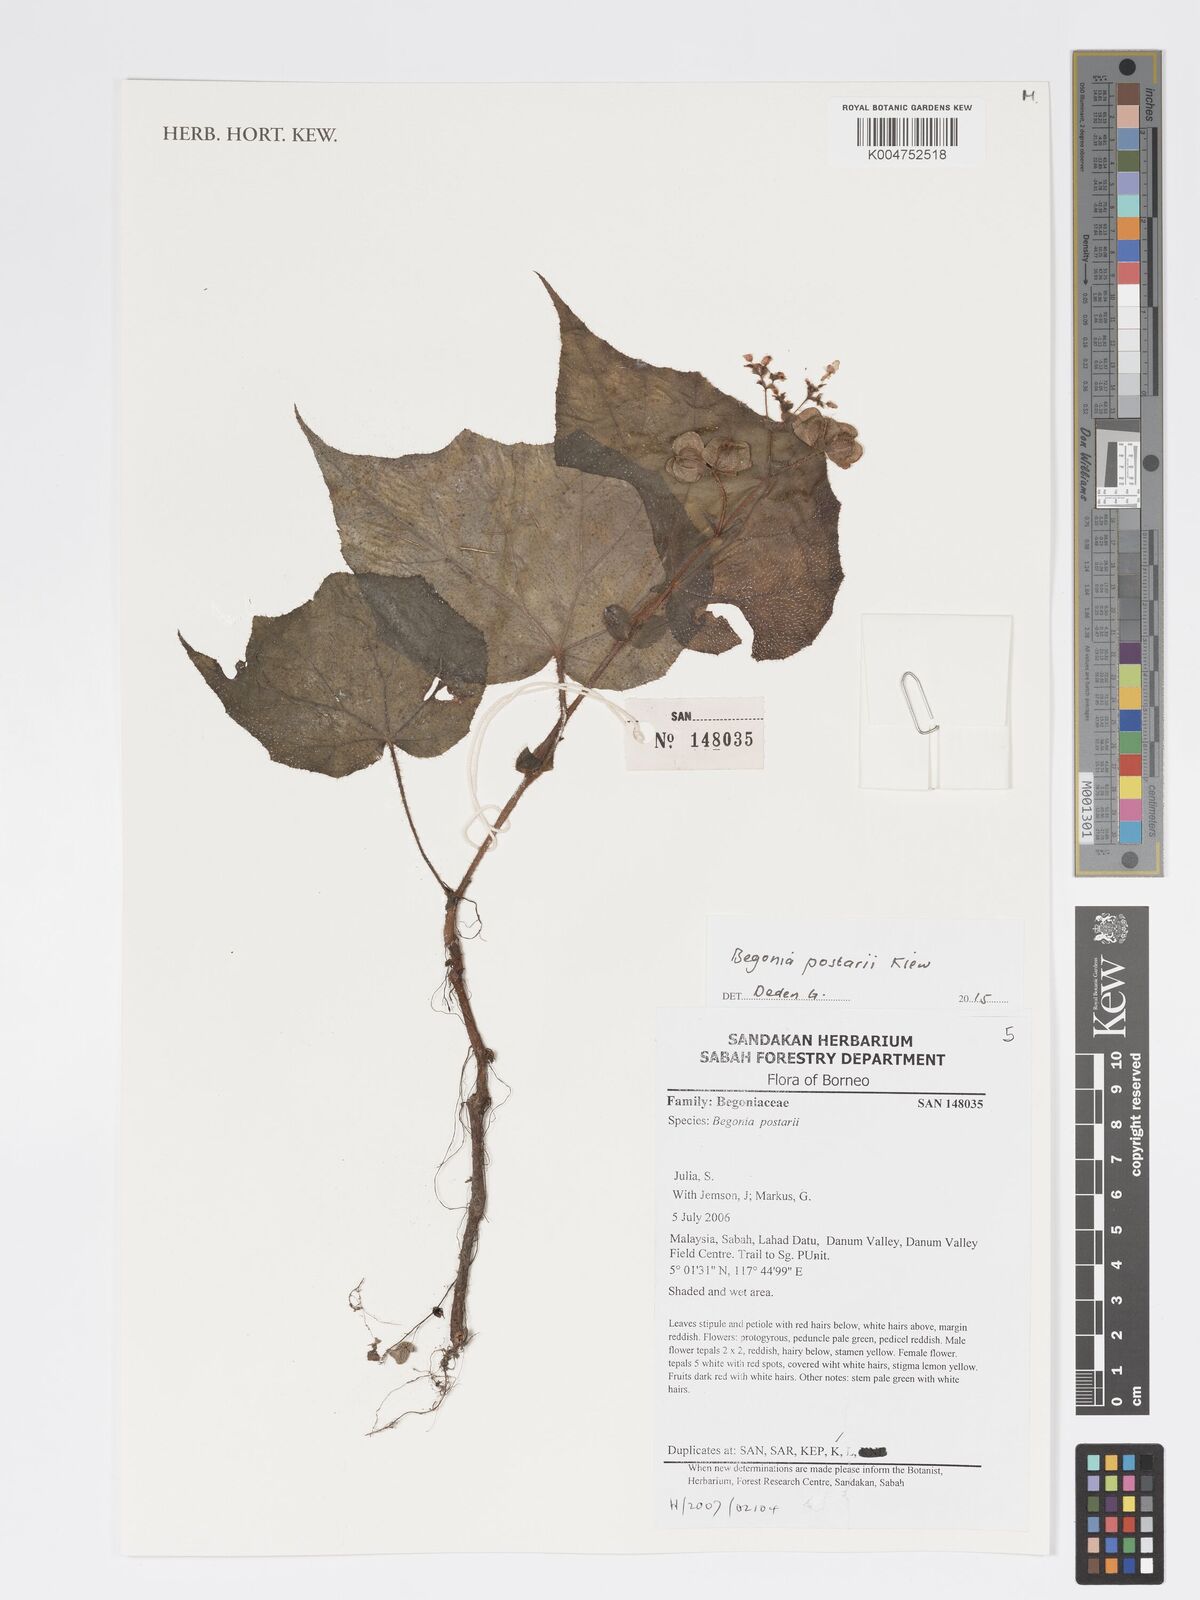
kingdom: Plantae
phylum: Tracheophyta
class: Magnoliopsida
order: Cucurbitales
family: Begoniaceae
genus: Begonia
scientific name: Begonia postarii
